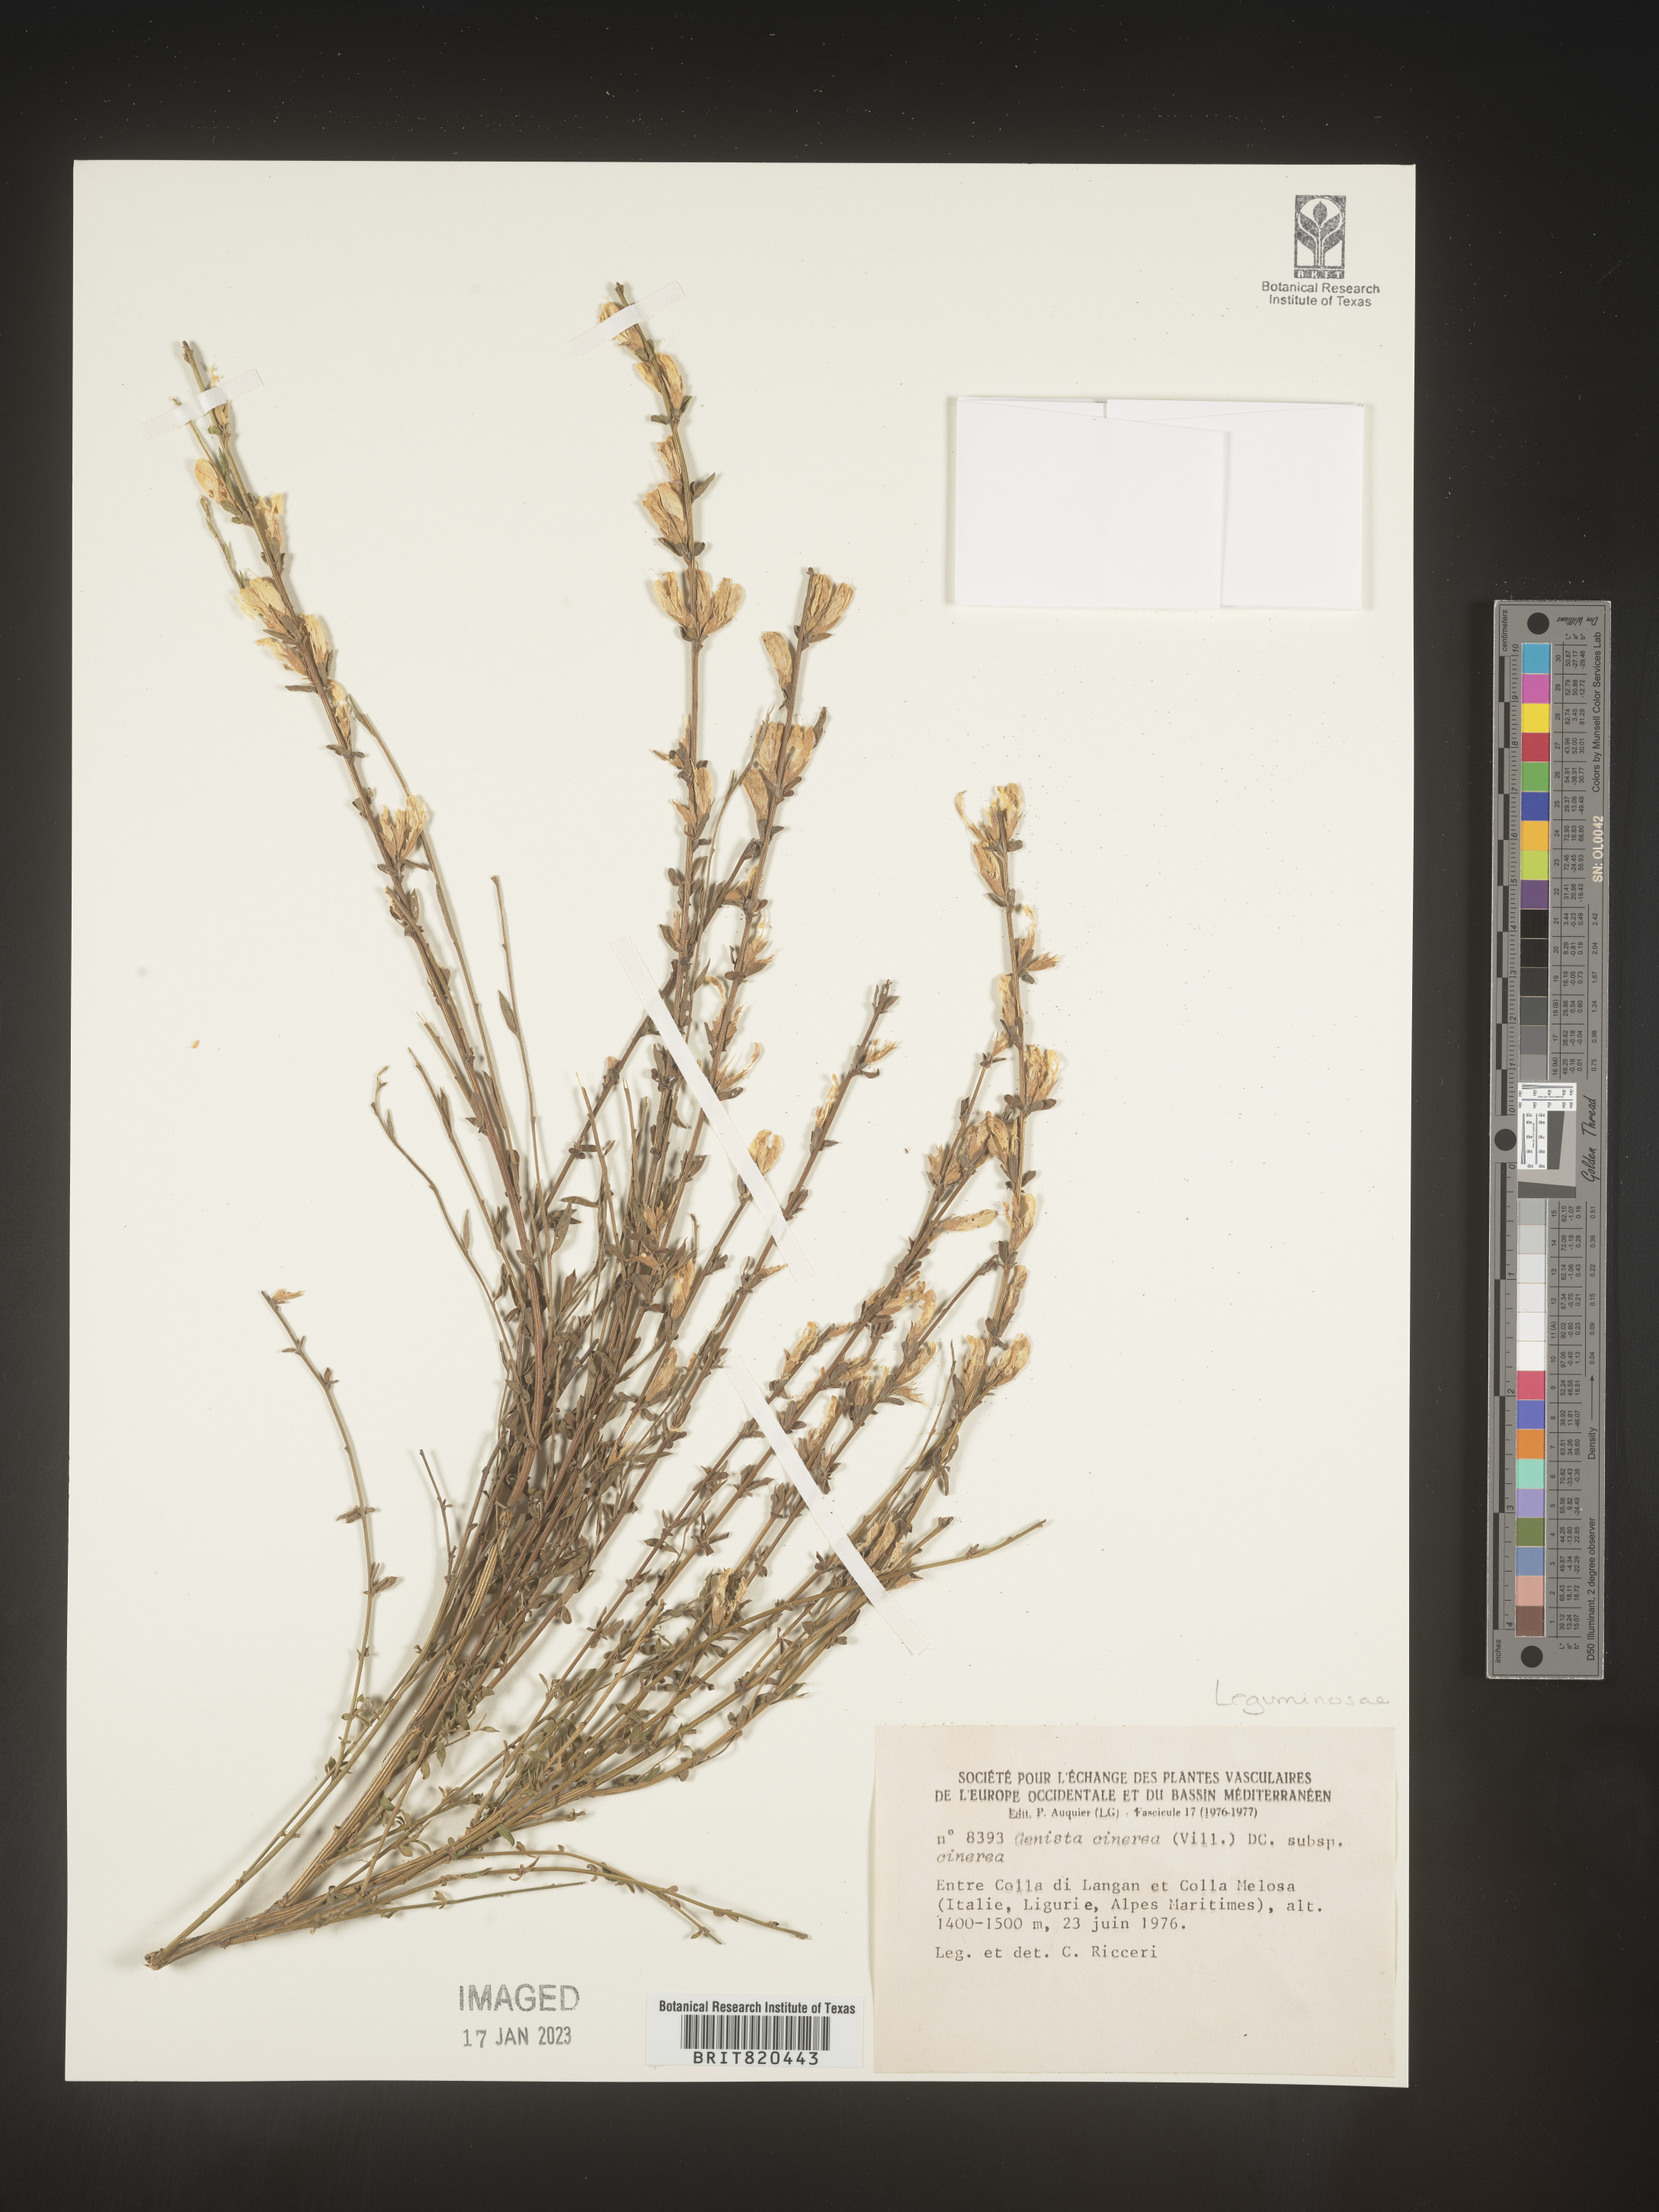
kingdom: Plantae
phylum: Tracheophyta
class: Magnoliopsida
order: Fabales
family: Fabaceae
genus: Genista
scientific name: Genista
